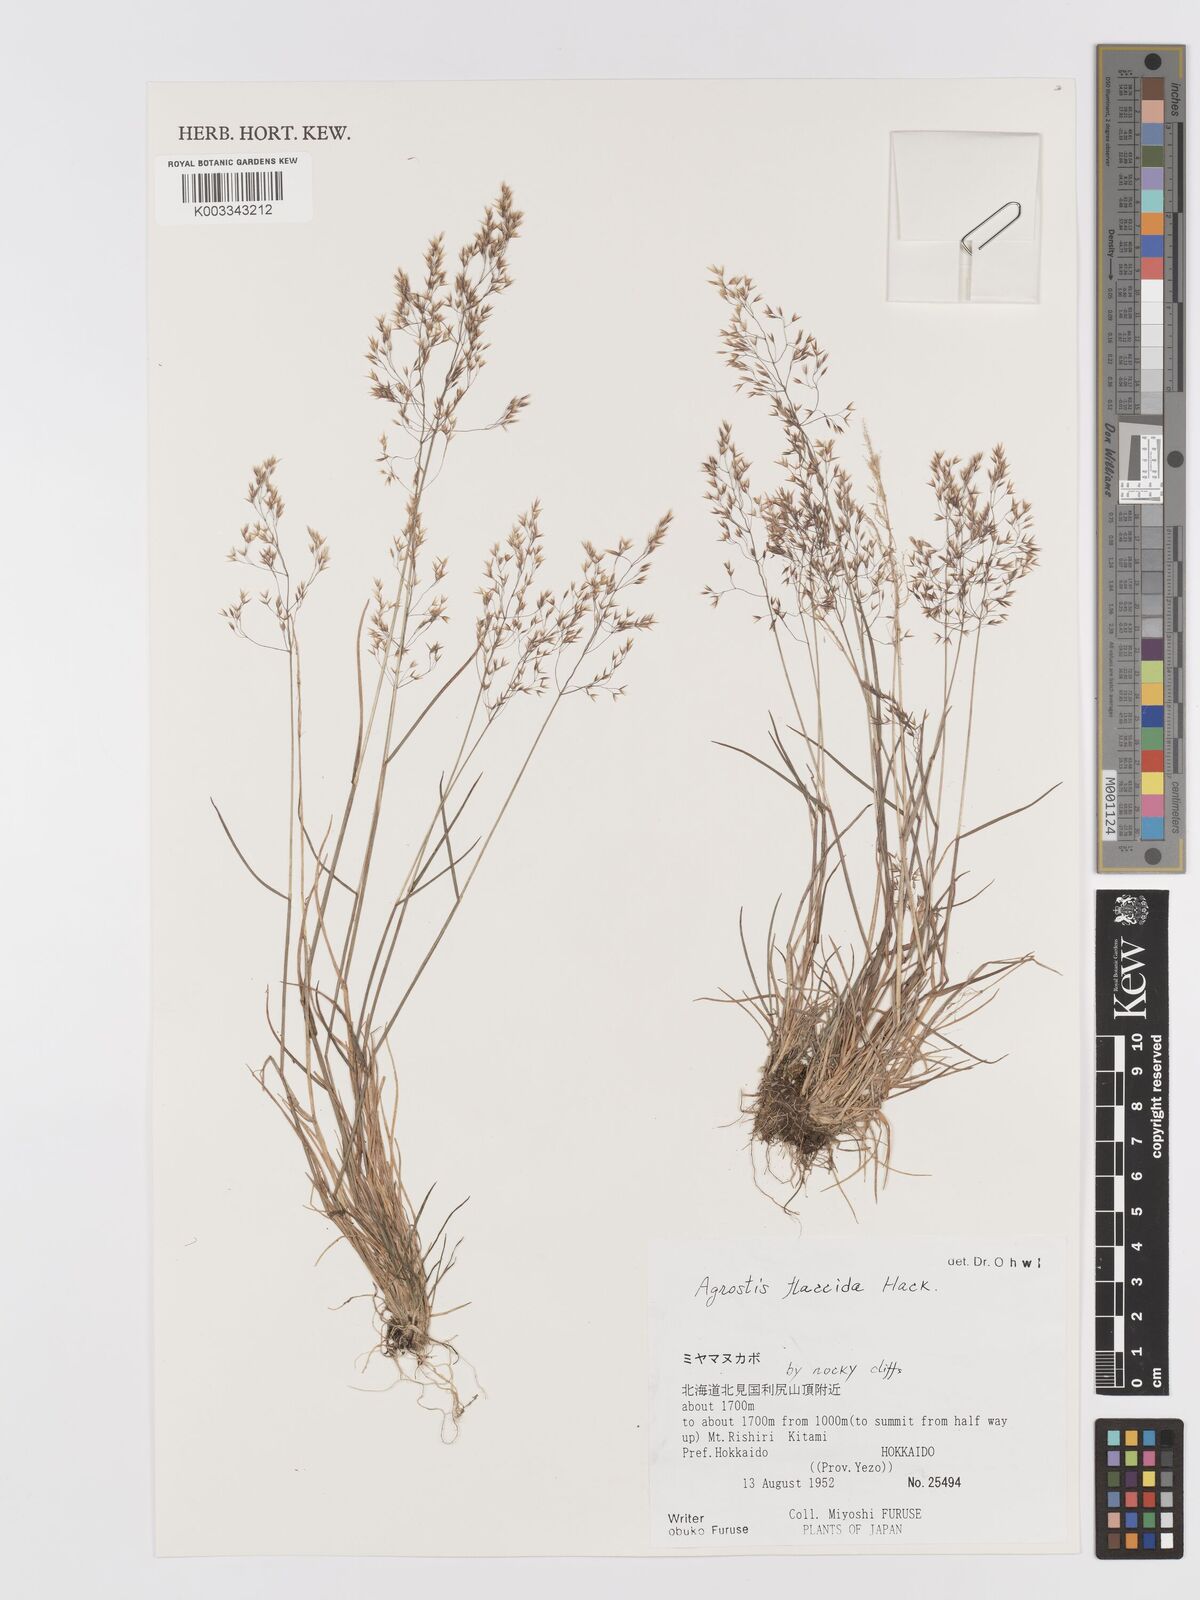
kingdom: Plantae
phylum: Tracheophyta
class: Liliopsida
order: Poales
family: Poaceae
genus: Agrostis
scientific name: Agrostis flaccida
